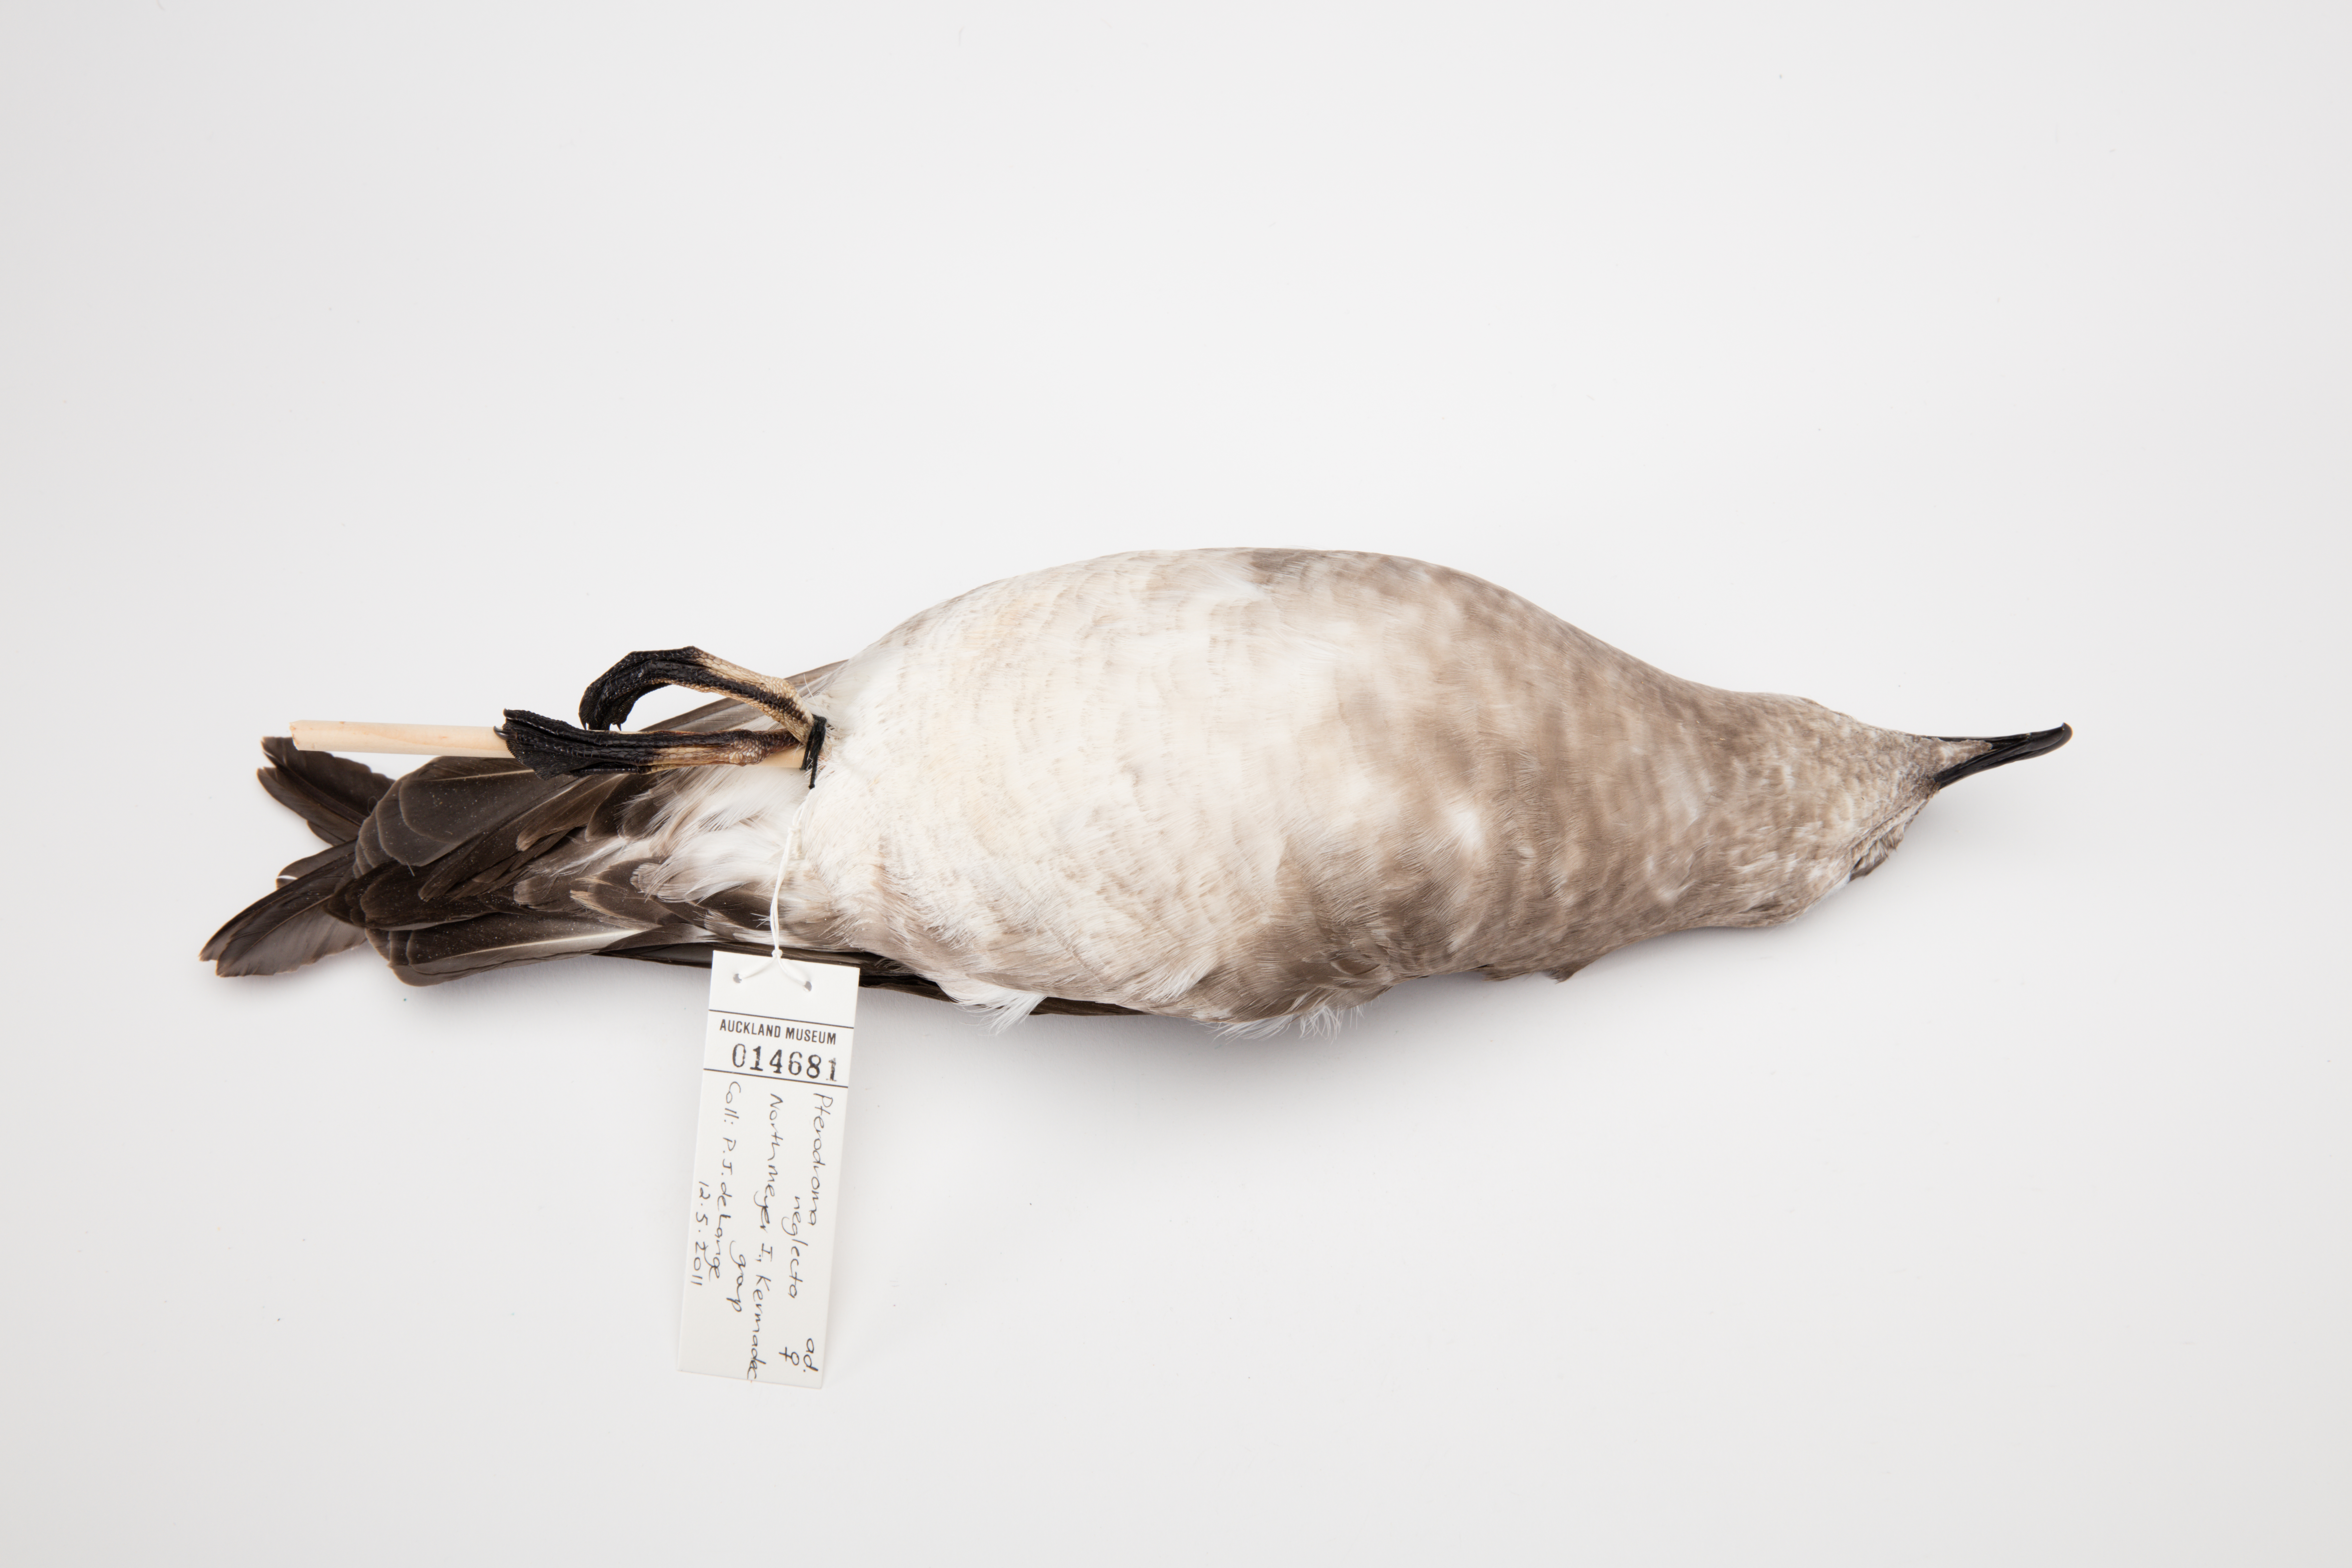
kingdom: Animalia
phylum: Chordata
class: Aves
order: Procellariiformes
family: Procellariidae
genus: Pterodroma
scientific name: Pterodroma neglecta
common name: Kermadec petrel
